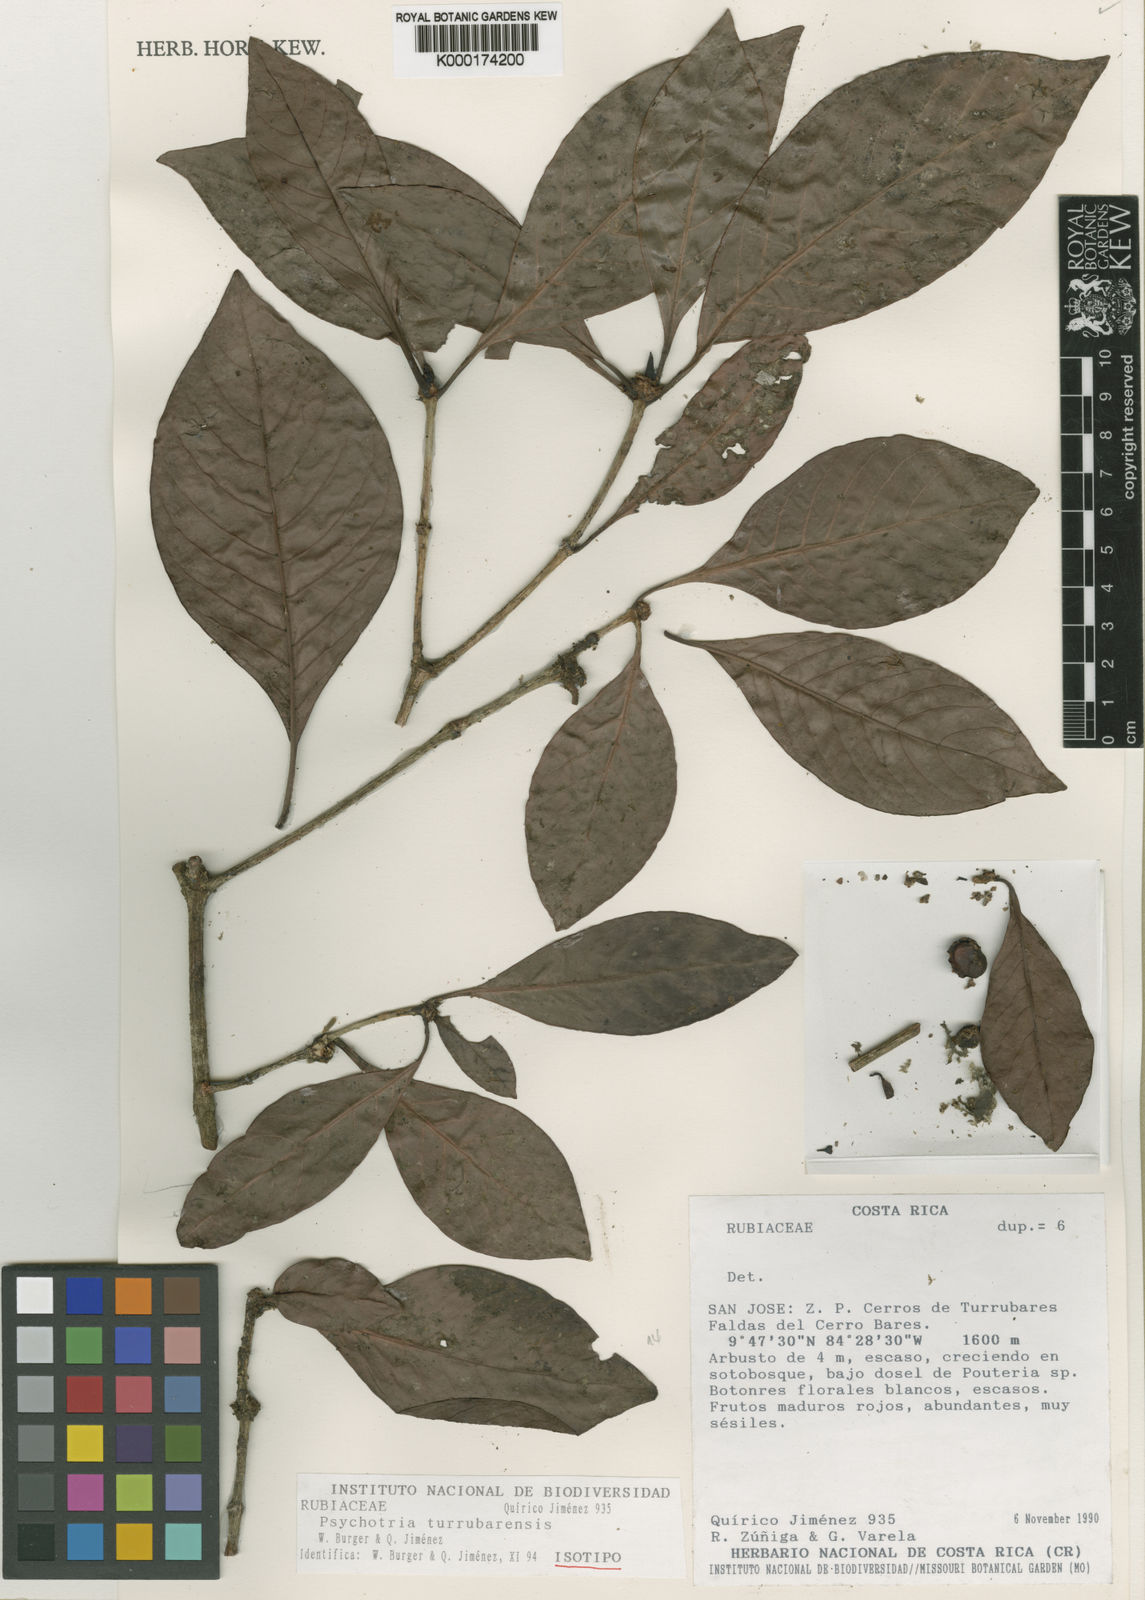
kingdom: Plantae
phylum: Tracheophyta
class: Magnoliopsida
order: Gentianales
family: Rubiaceae
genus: Psychotria
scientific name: Psychotria
